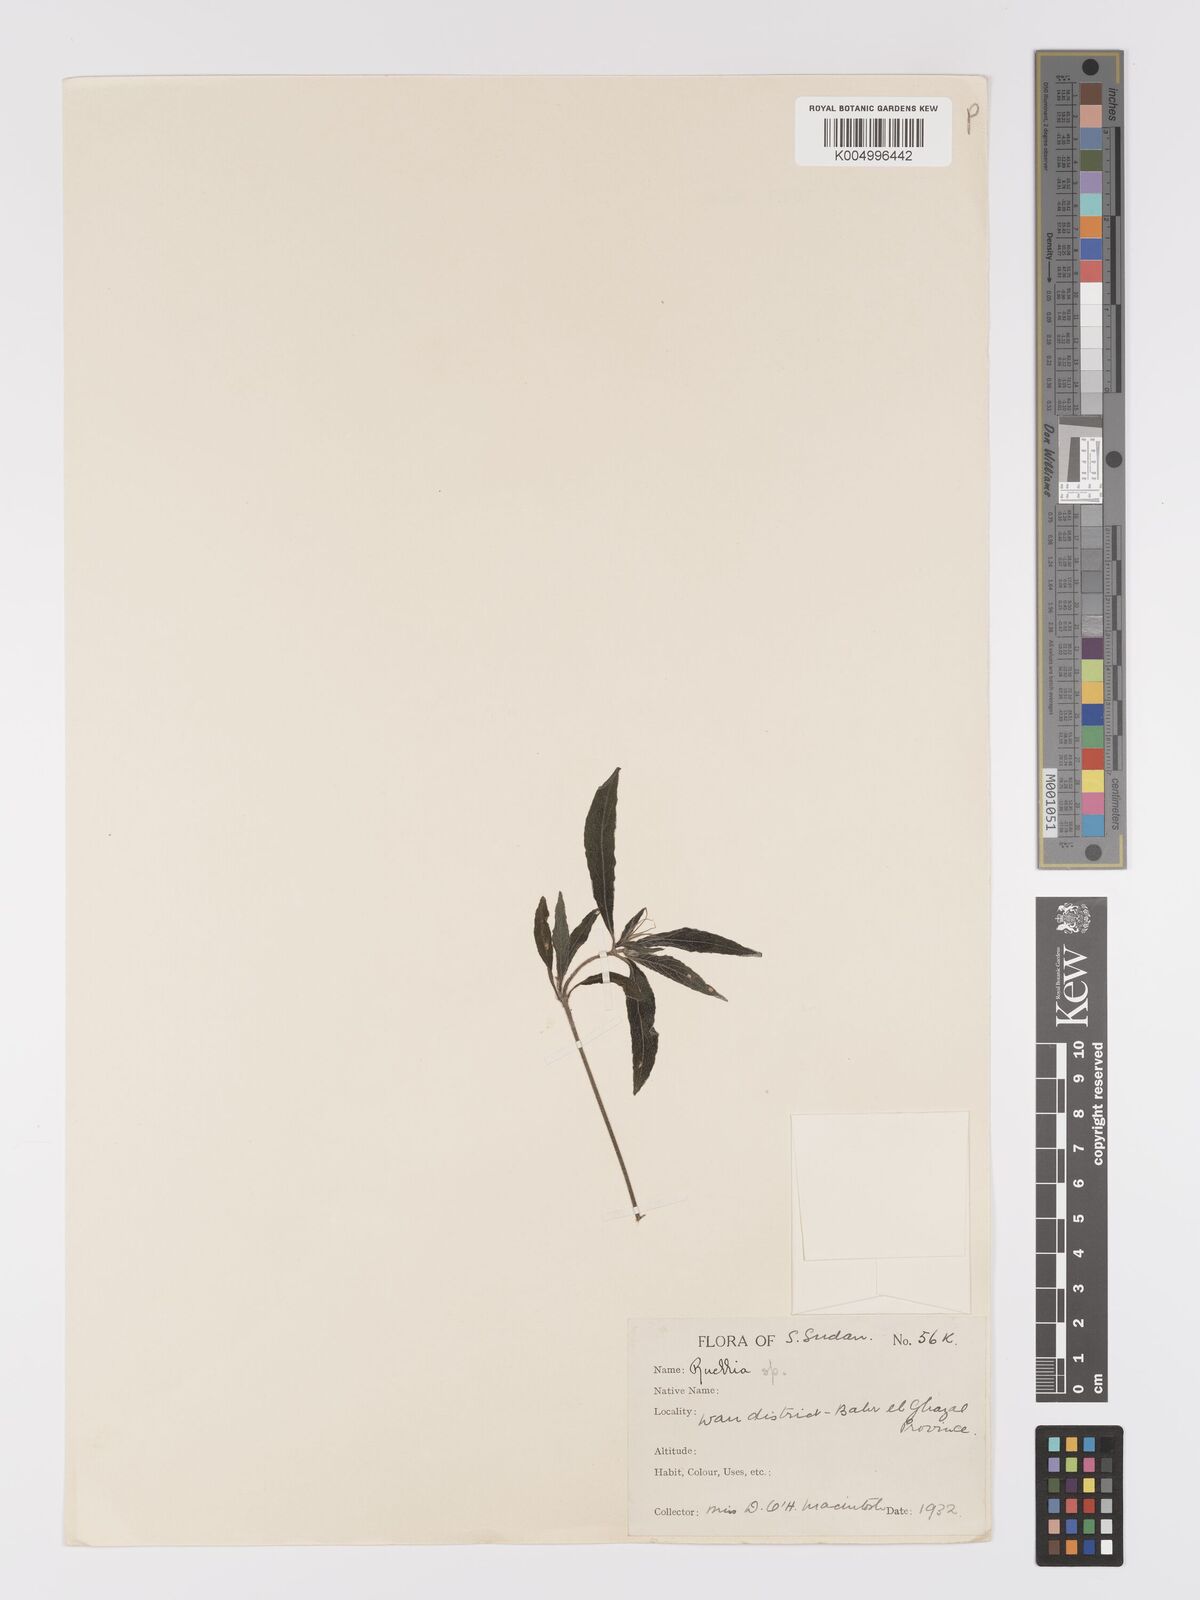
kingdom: Plantae
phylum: Tracheophyta
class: Magnoliopsida
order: Lamiales
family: Acanthaceae
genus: Ruellia
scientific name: Ruellia
